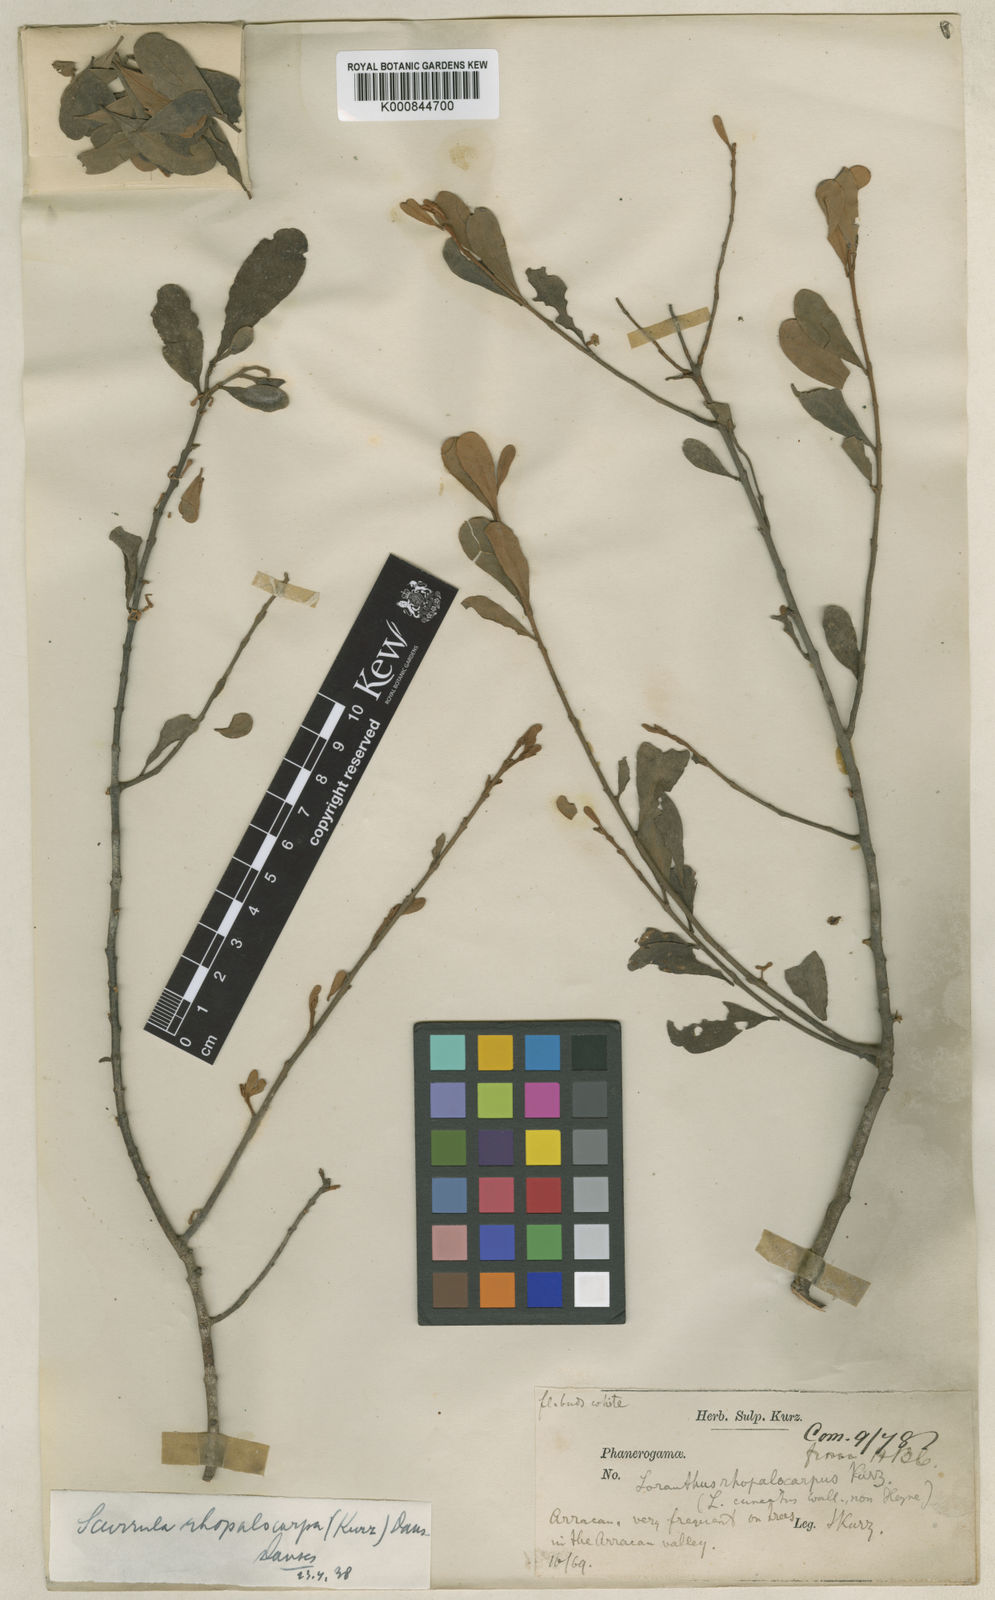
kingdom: Plantae
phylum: Tracheophyta
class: Magnoliopsida
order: Santalales
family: Loranthaceae
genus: Scurrula
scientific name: Scurrula rhopalocarpa
